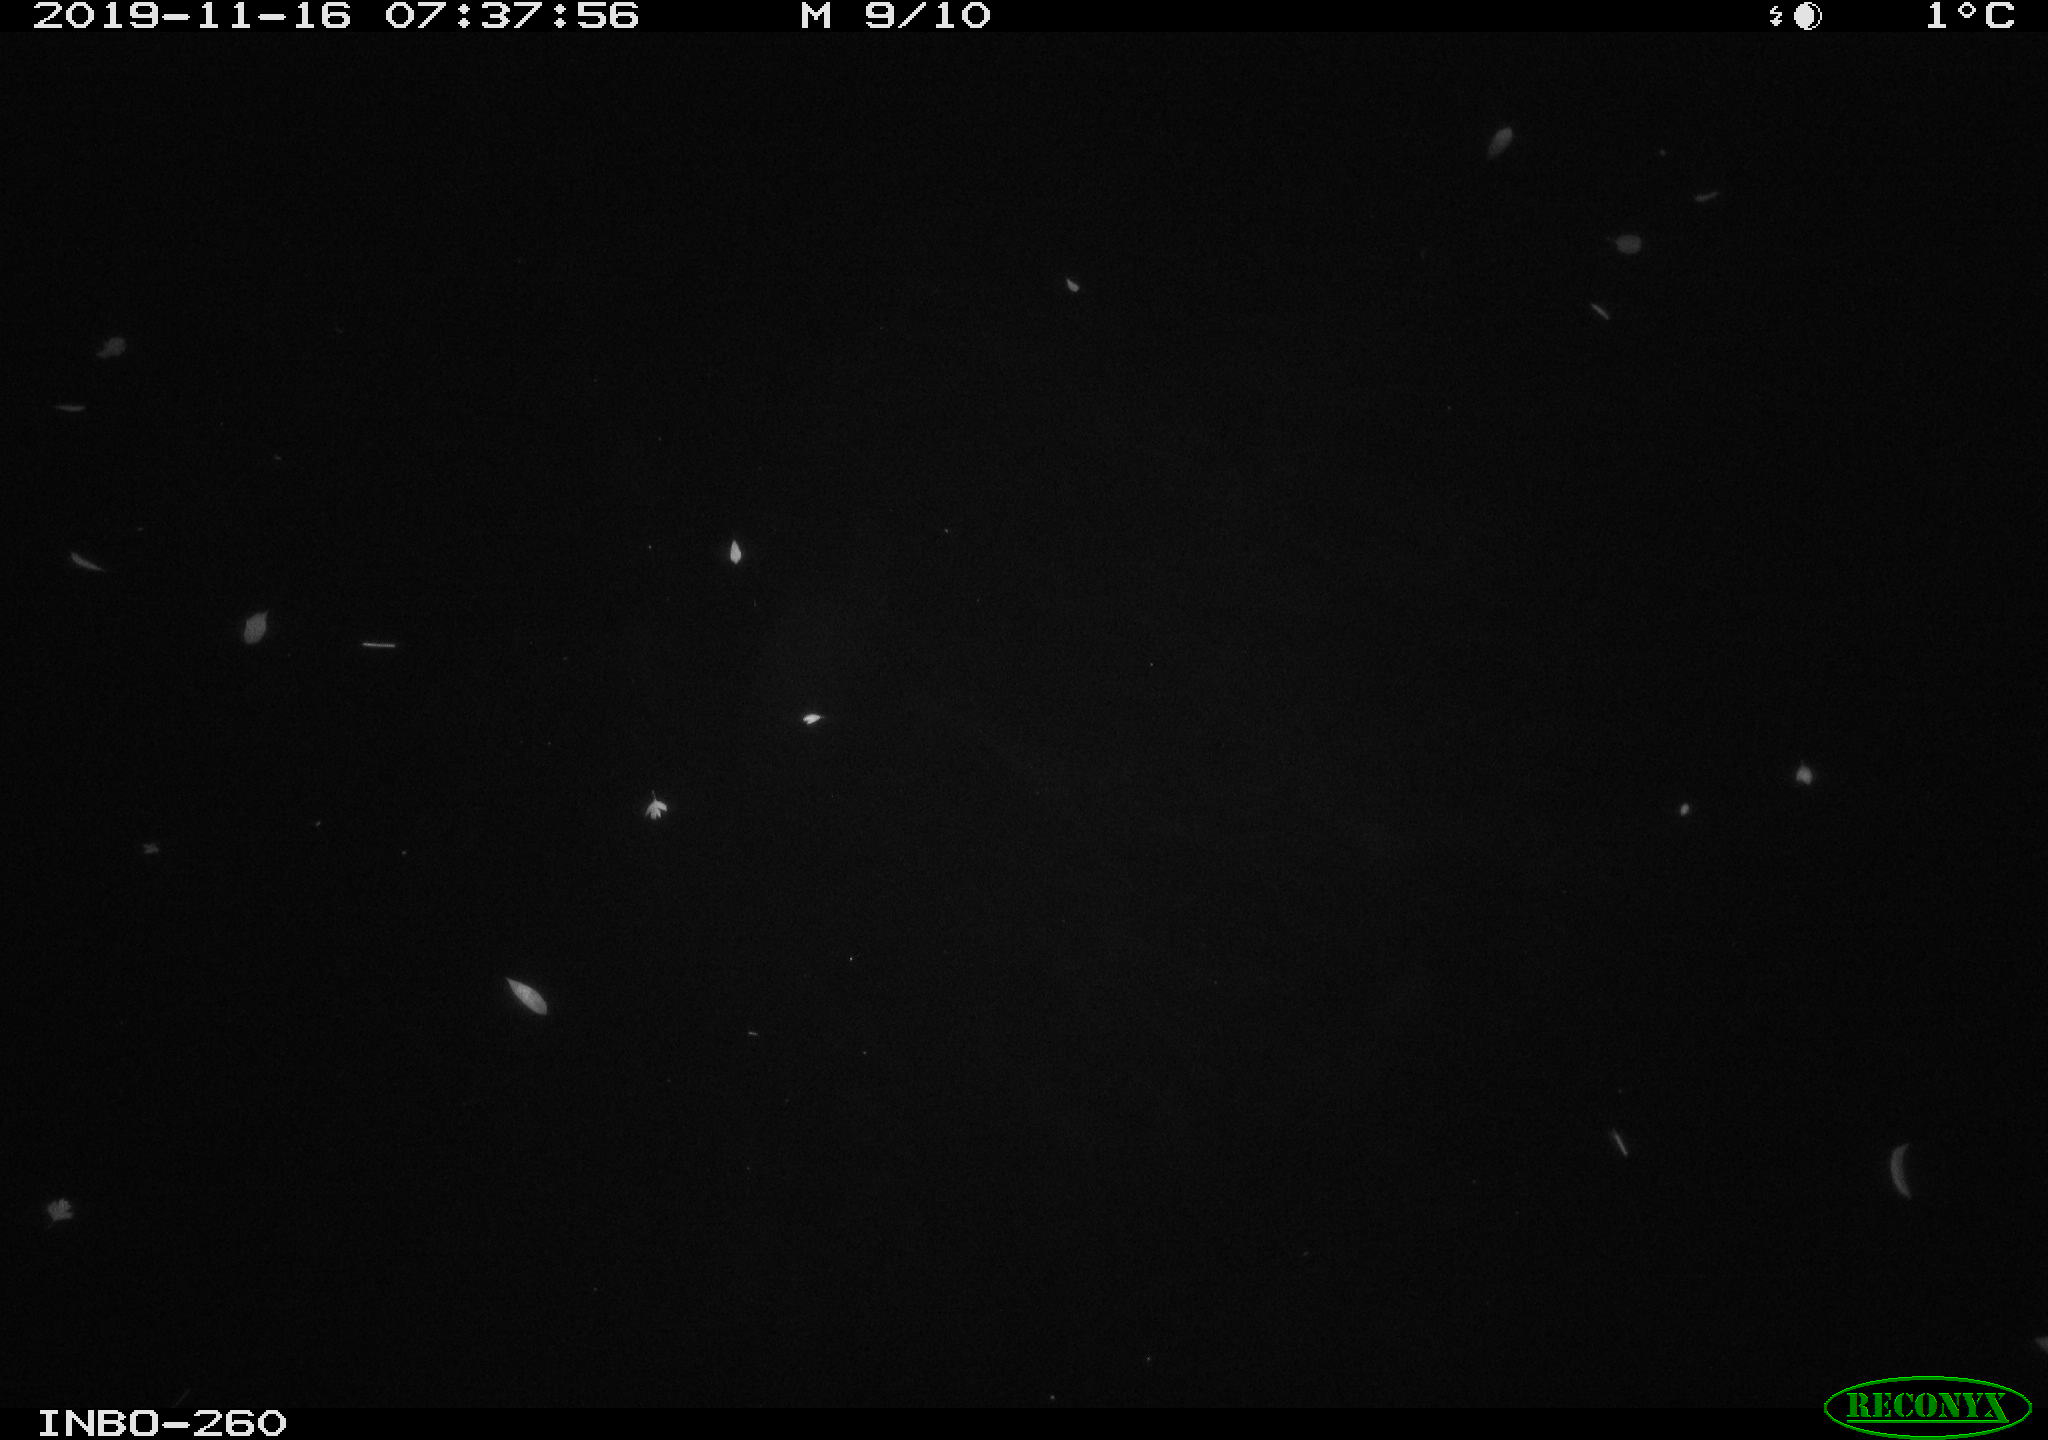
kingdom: Animalia
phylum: Chordata
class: Aves
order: Anseriformes
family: Anatidae
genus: Anas
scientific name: Anas platyrhynchos
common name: Mallard
